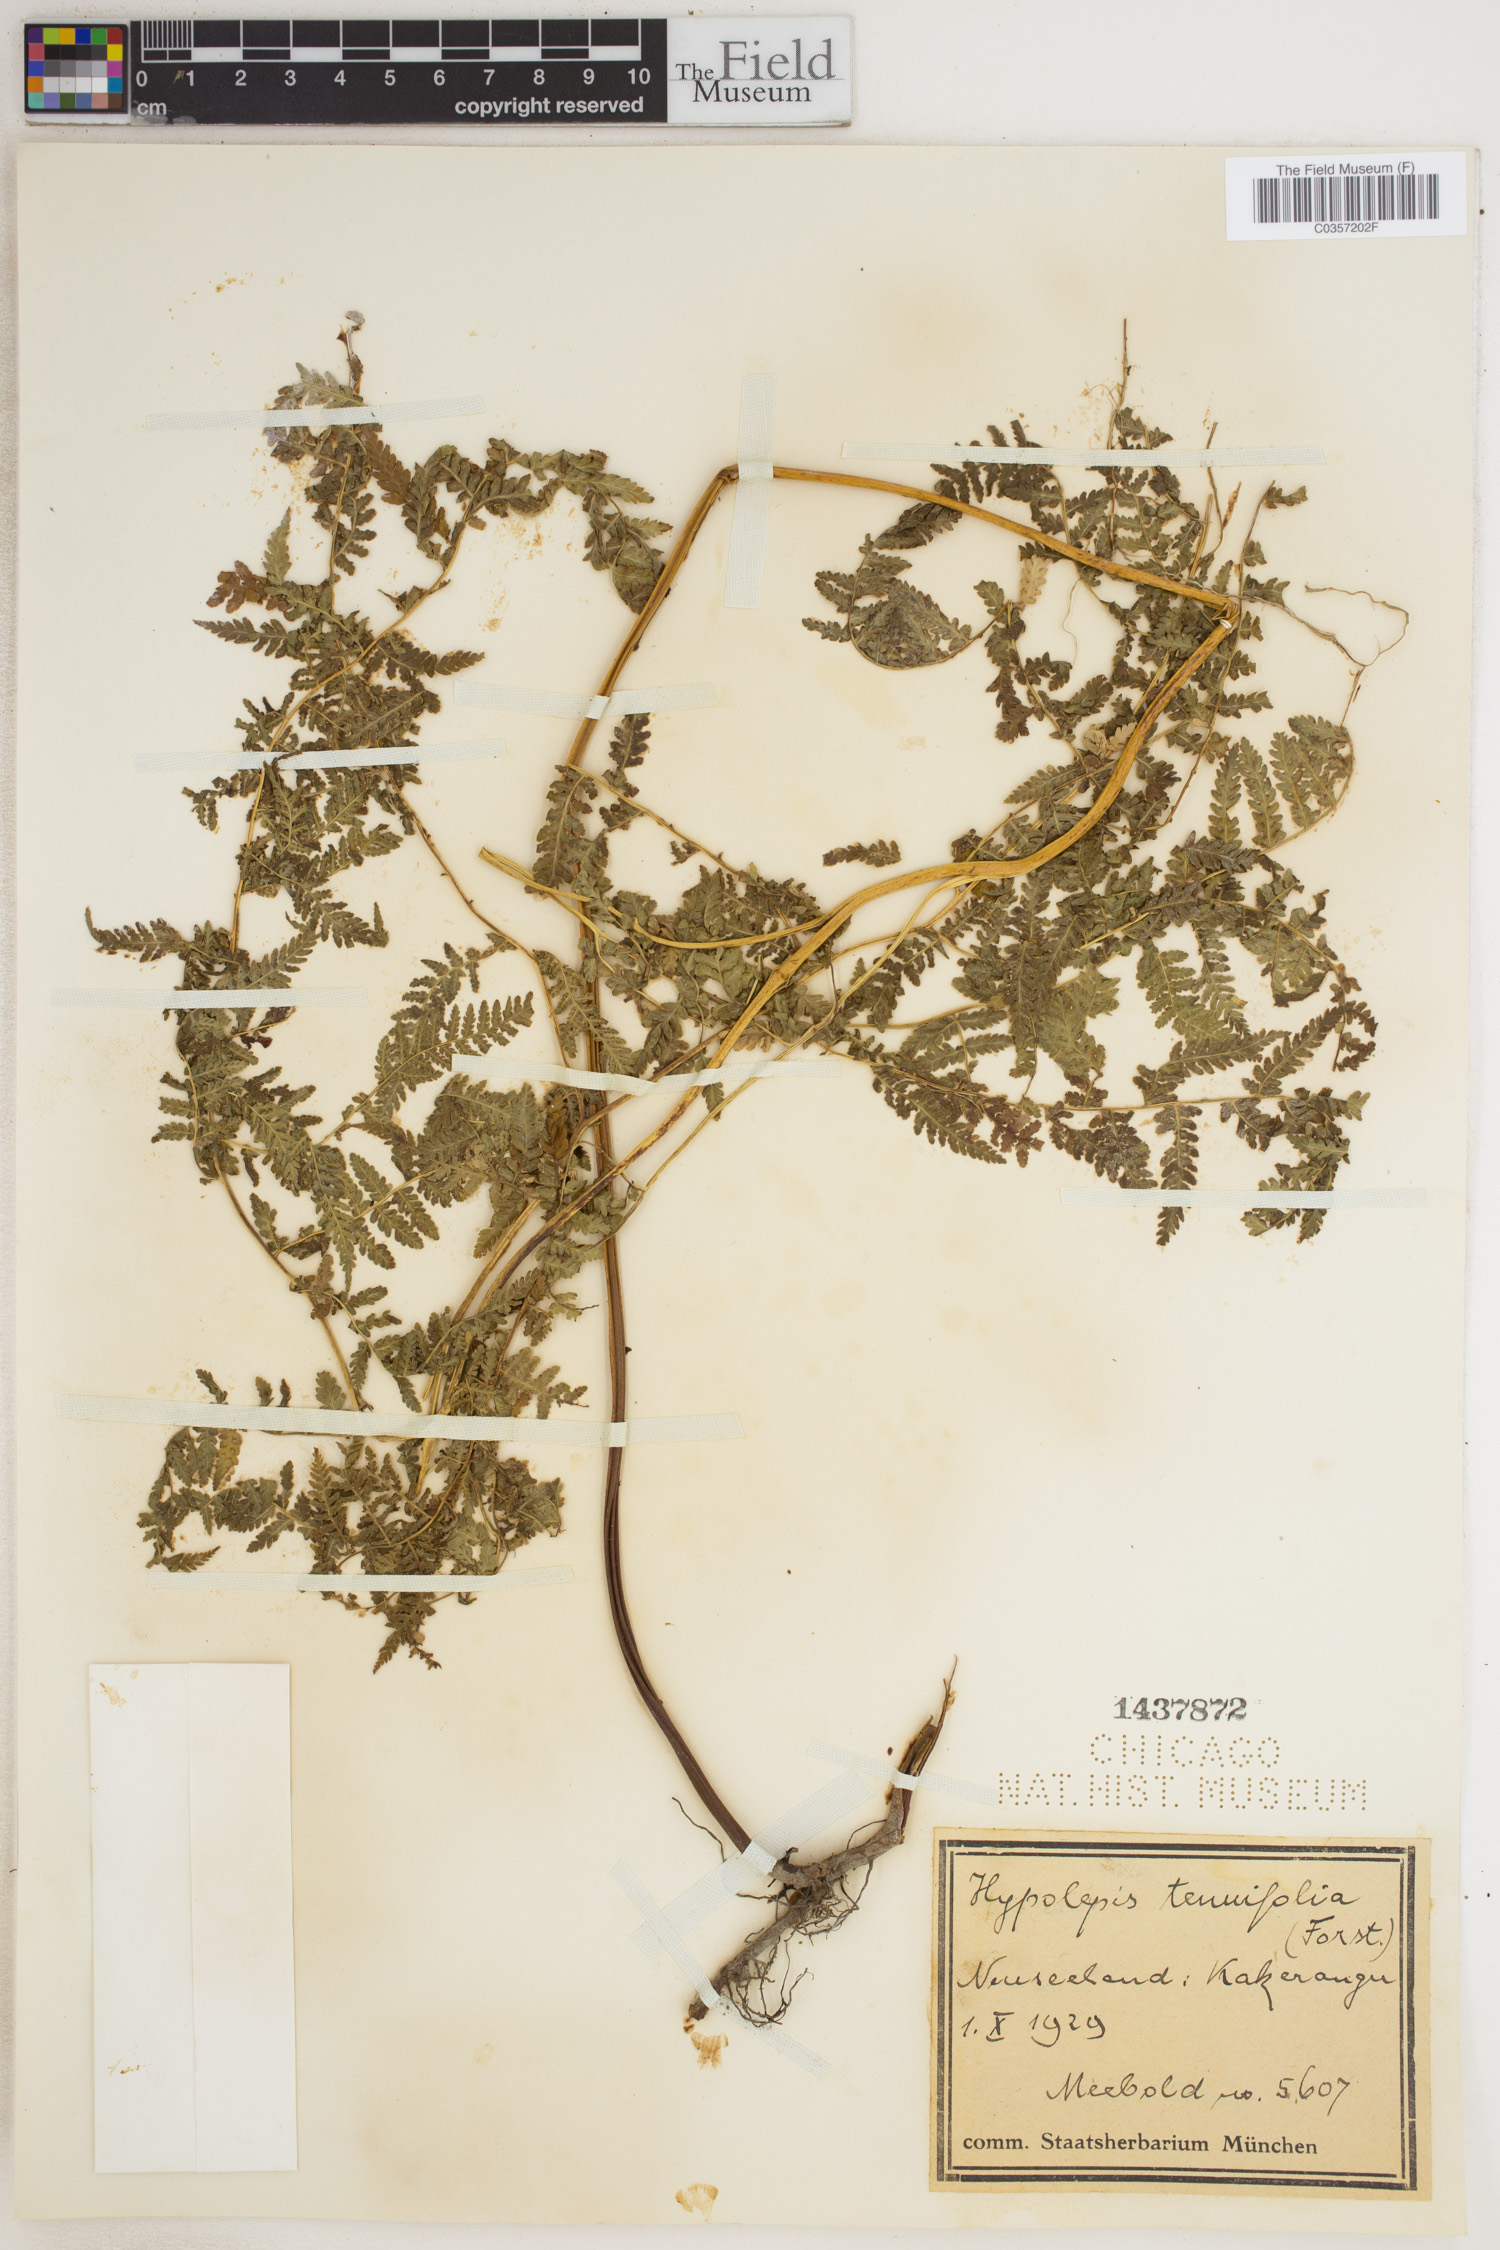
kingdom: Plantae
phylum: Tracheophyta
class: Polypodiopsida
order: Polypodiales
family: Dennstaedtiaceae
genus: Hypolepis
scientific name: Hypolepis tenuifolia
